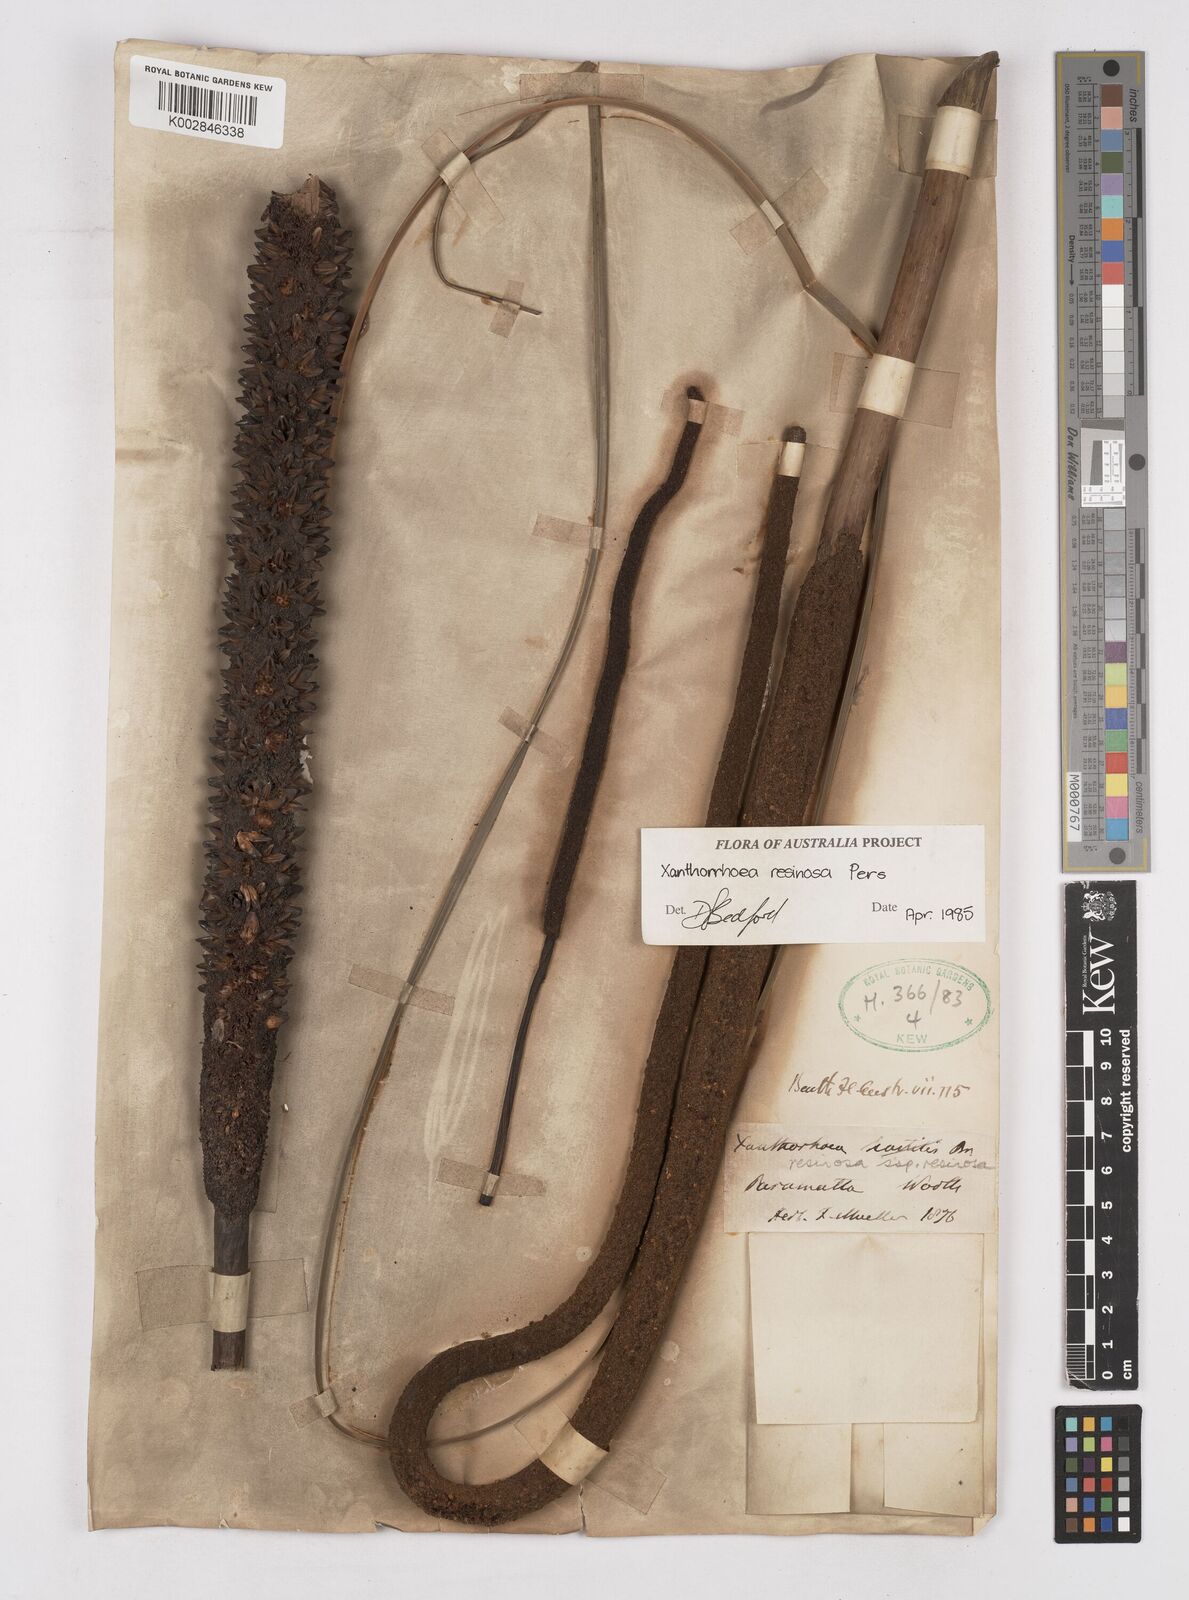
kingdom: Plantae
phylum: Tracheophyta
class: Liliopsida
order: Asparagales
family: Asphodelaceae
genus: Xanthorrhoea
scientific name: Xanthorrhoea resinosa
